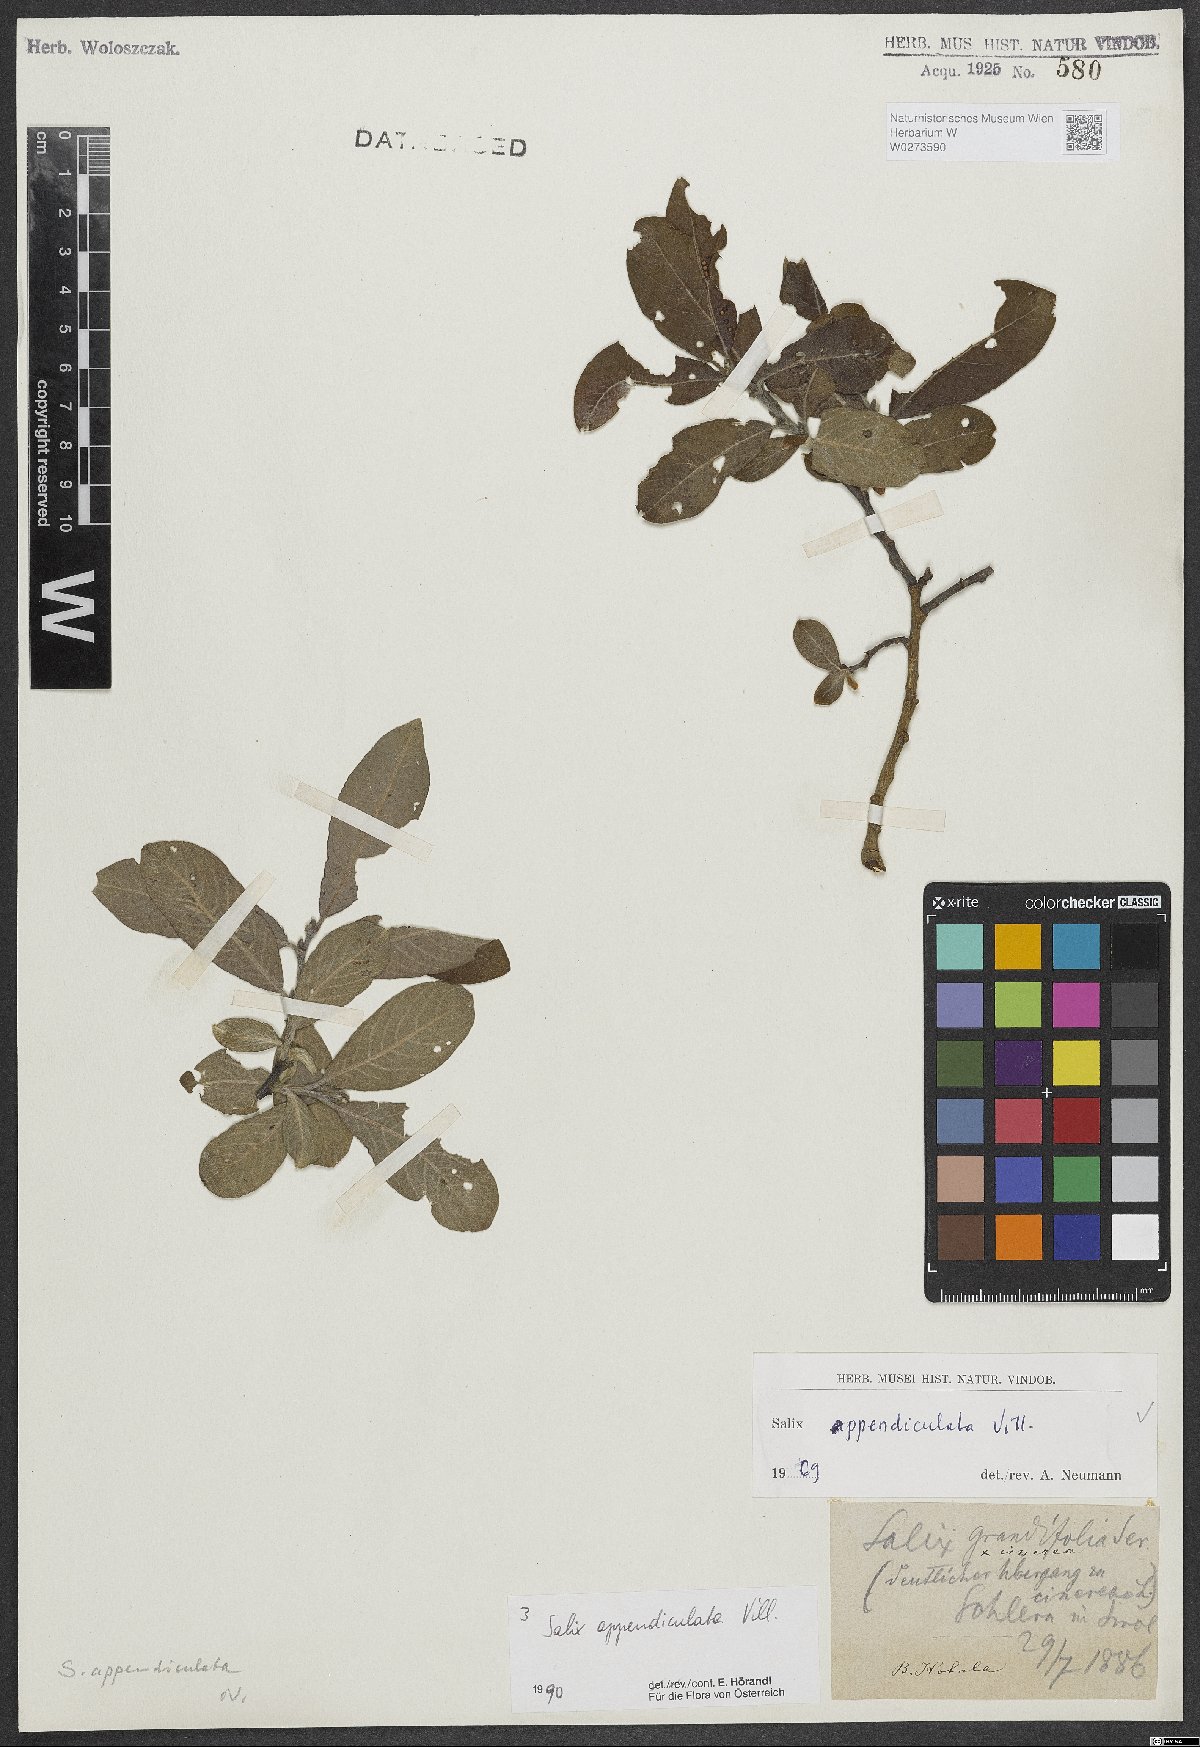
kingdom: Plantae
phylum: Tracheophyta
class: Magnoliopsida
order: Malpighiales
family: Salicaceae
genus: Salix
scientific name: Salix appendiculata
